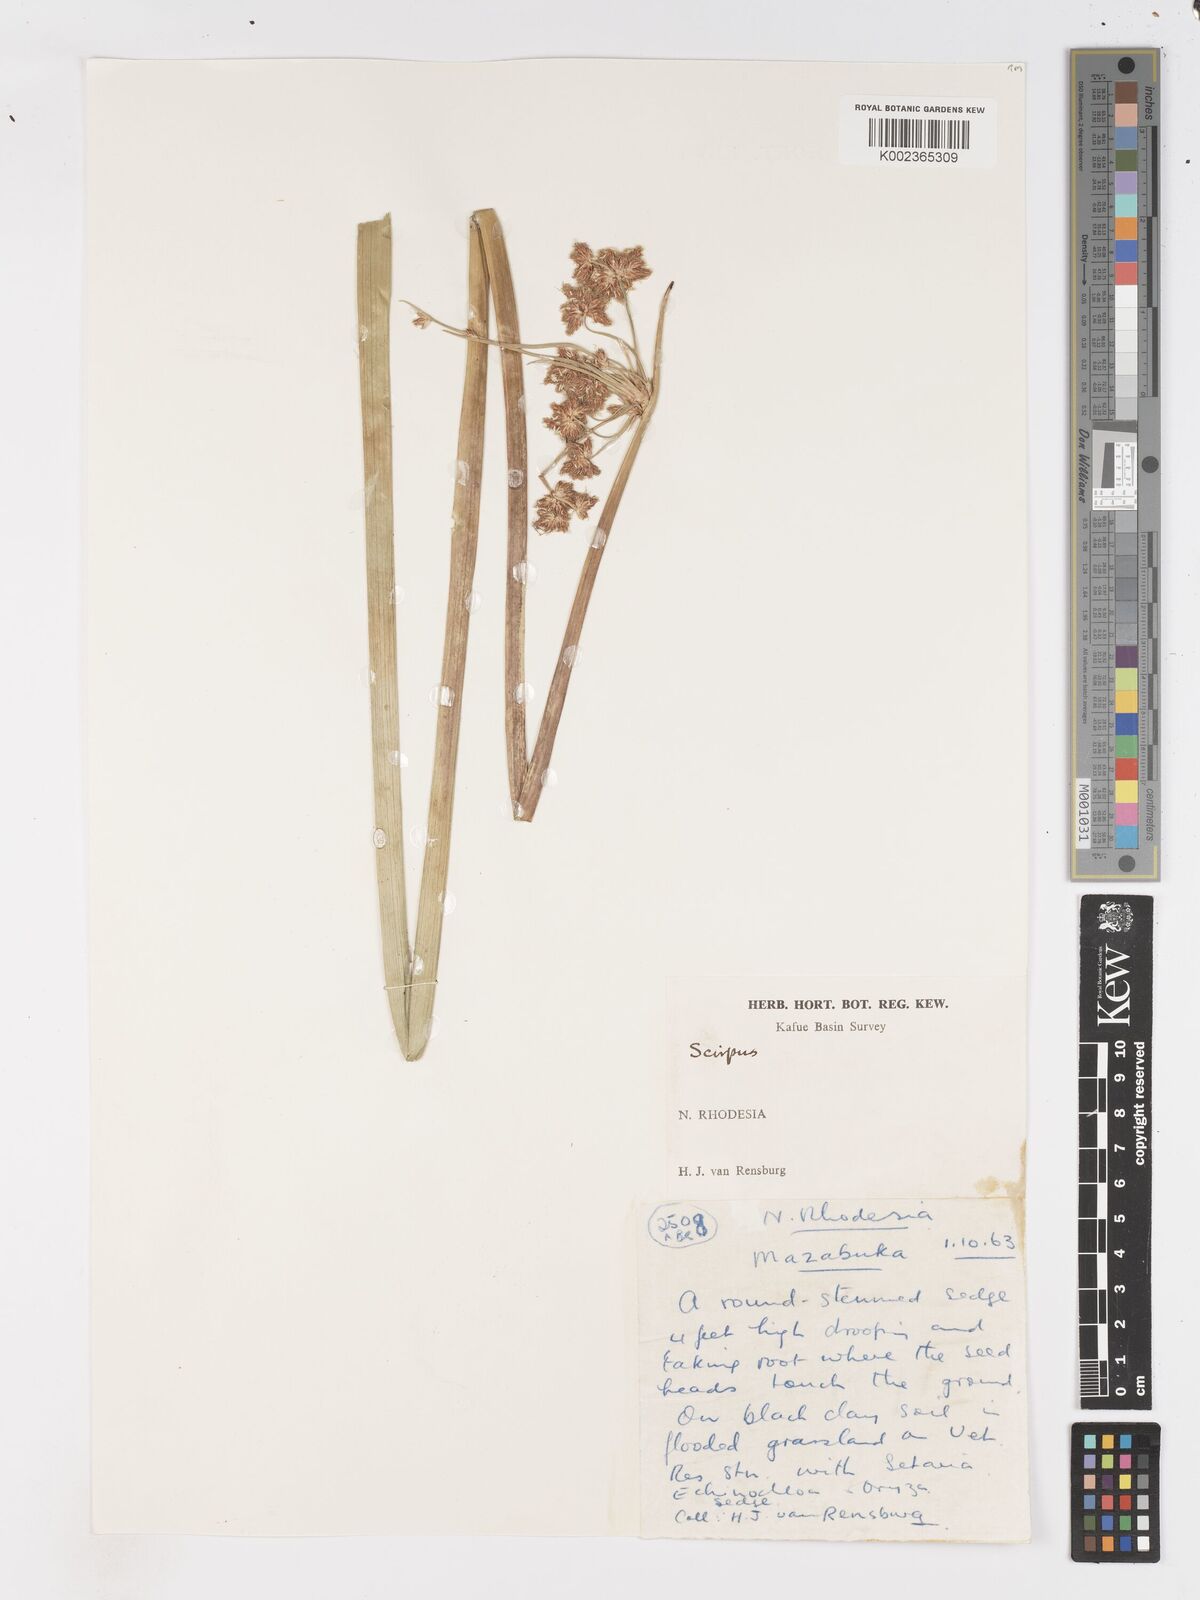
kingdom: Plantae
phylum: Tracheophyta
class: Liliopsida
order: Poales
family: Cyperaceae
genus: Schoenoplectus
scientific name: Schoenoplectus
